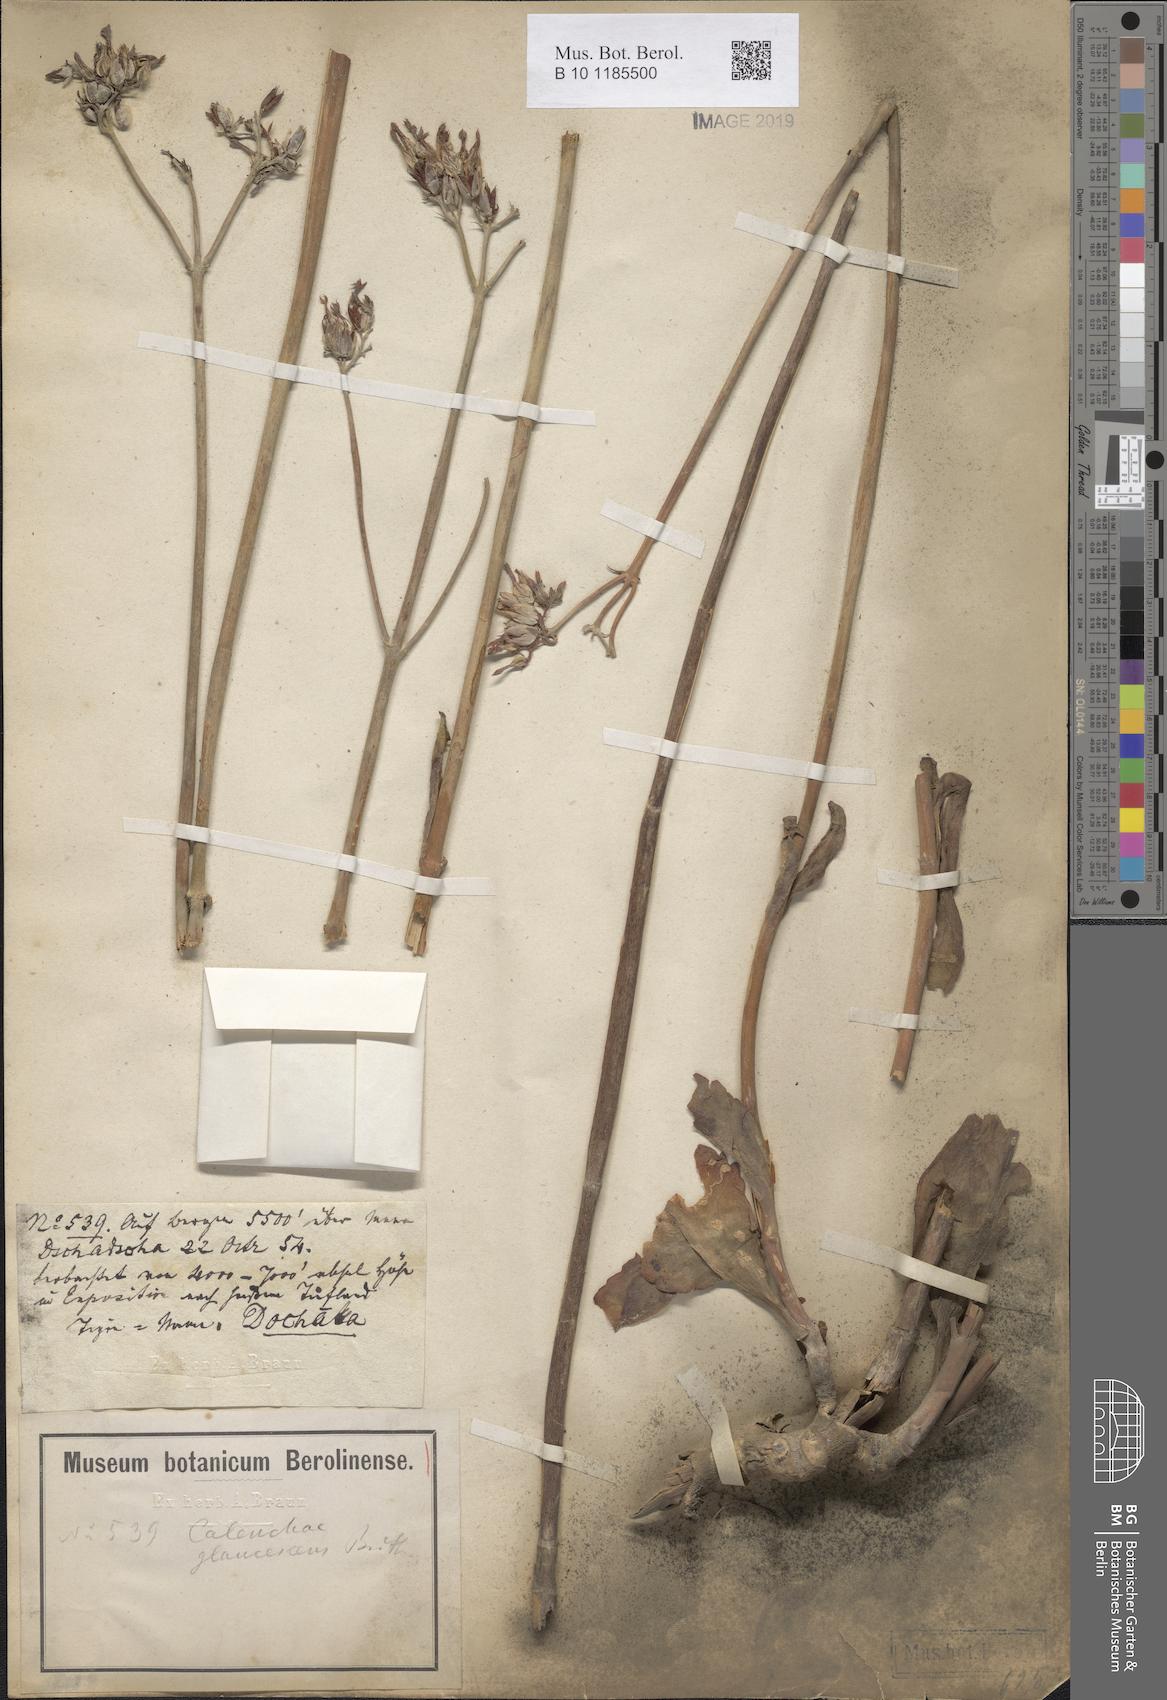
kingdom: Plantae
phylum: Tracheophyta
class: Magnoliopsida
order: Saxifragales
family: Crassulaceae
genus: Kalanchoe
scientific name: Kalanchoe glaucescens
